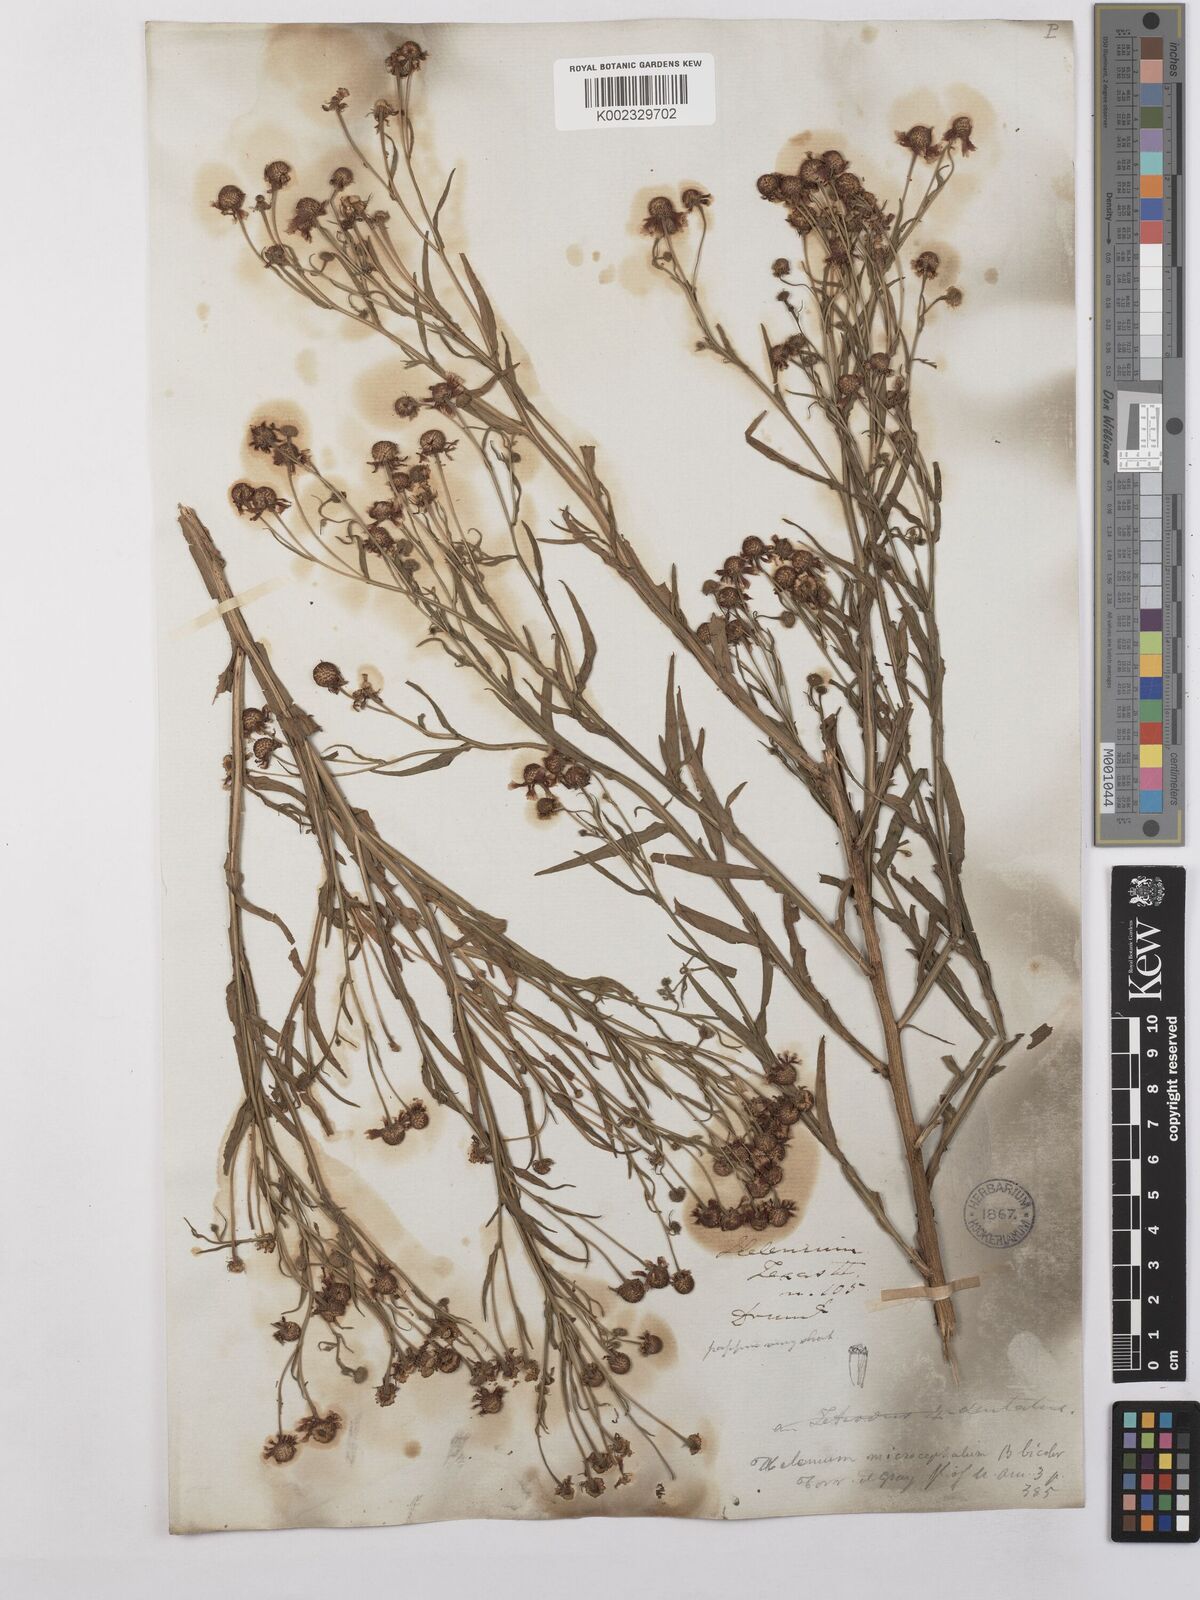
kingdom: Plantae
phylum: Tracheophyta
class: Magnoliopsida
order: Asterales
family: Asteraceae
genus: Helenium
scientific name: Helenium microcephalum
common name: Smallhead sneezeweed
